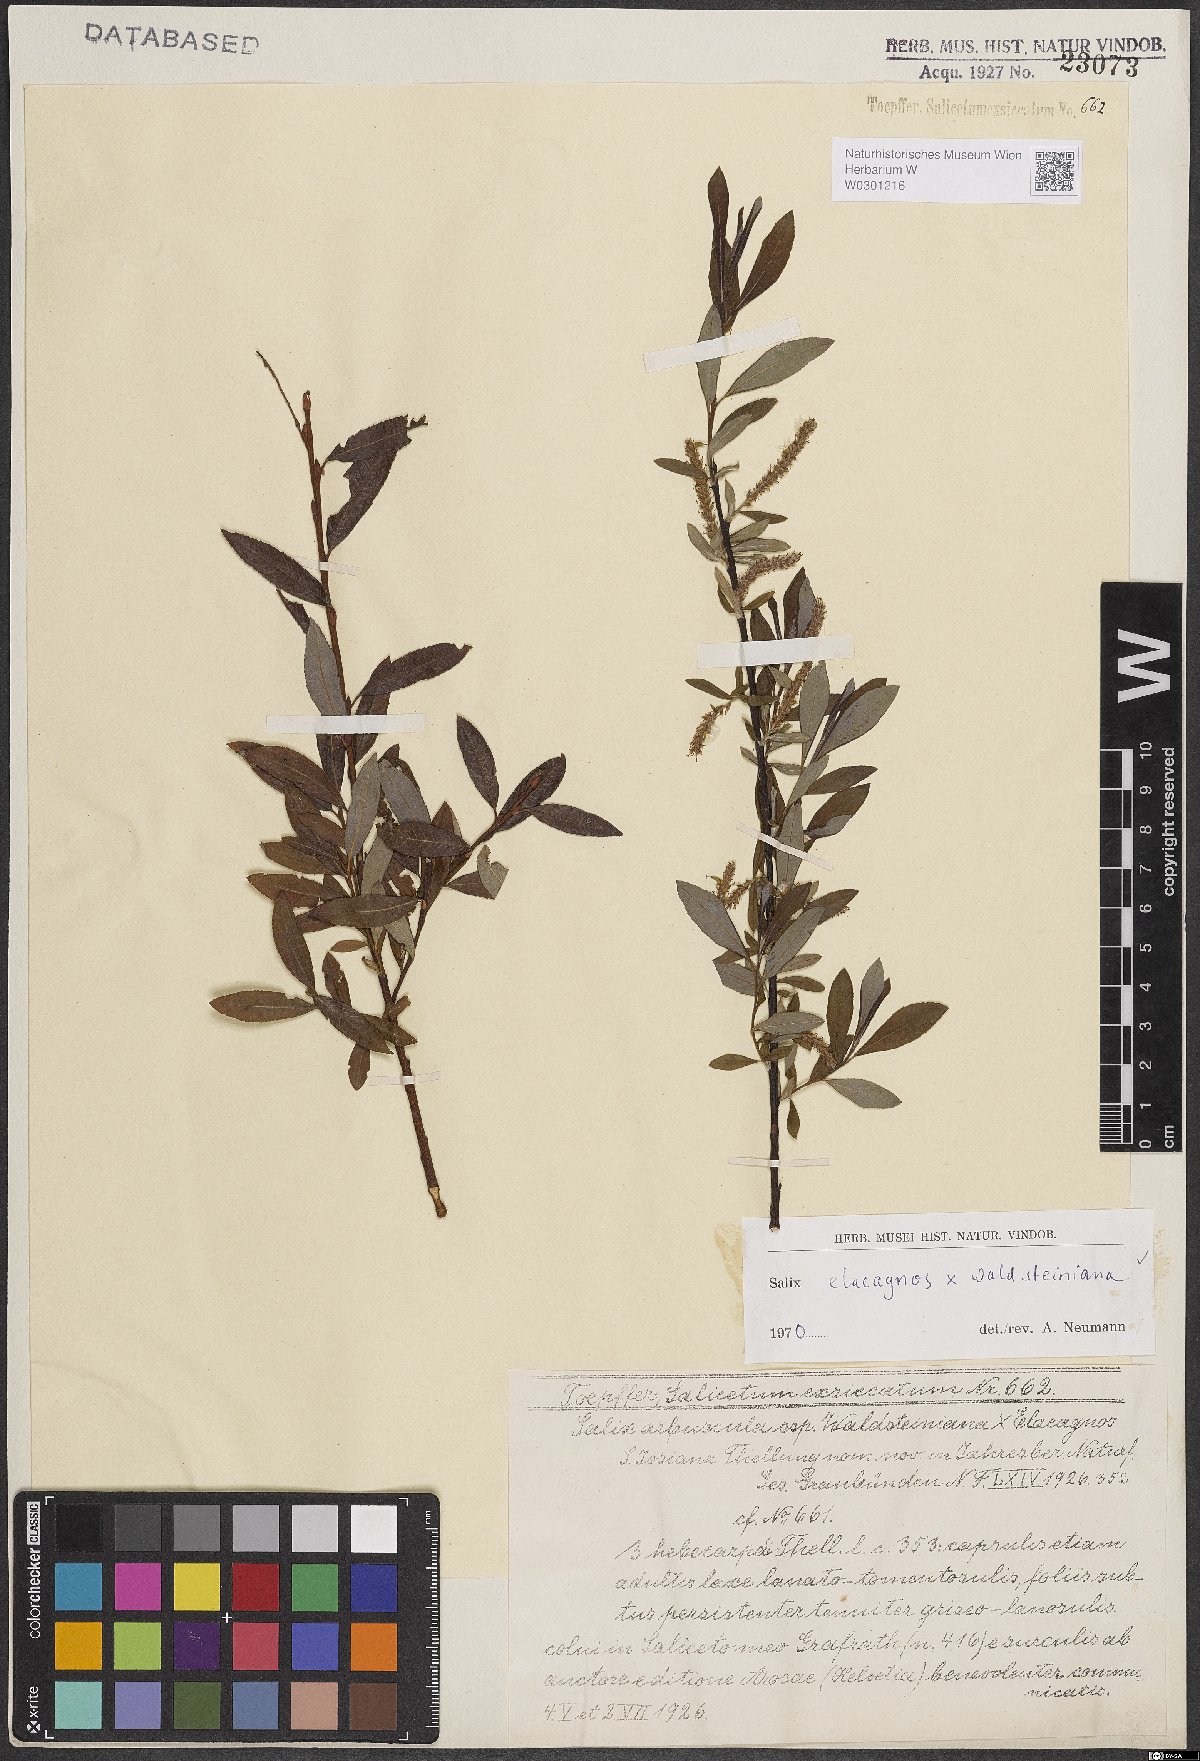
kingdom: Plantae
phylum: Tracheophyta
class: Magnoliopsida
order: Malpighiales
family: Salicaceae
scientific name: Salicaceae
